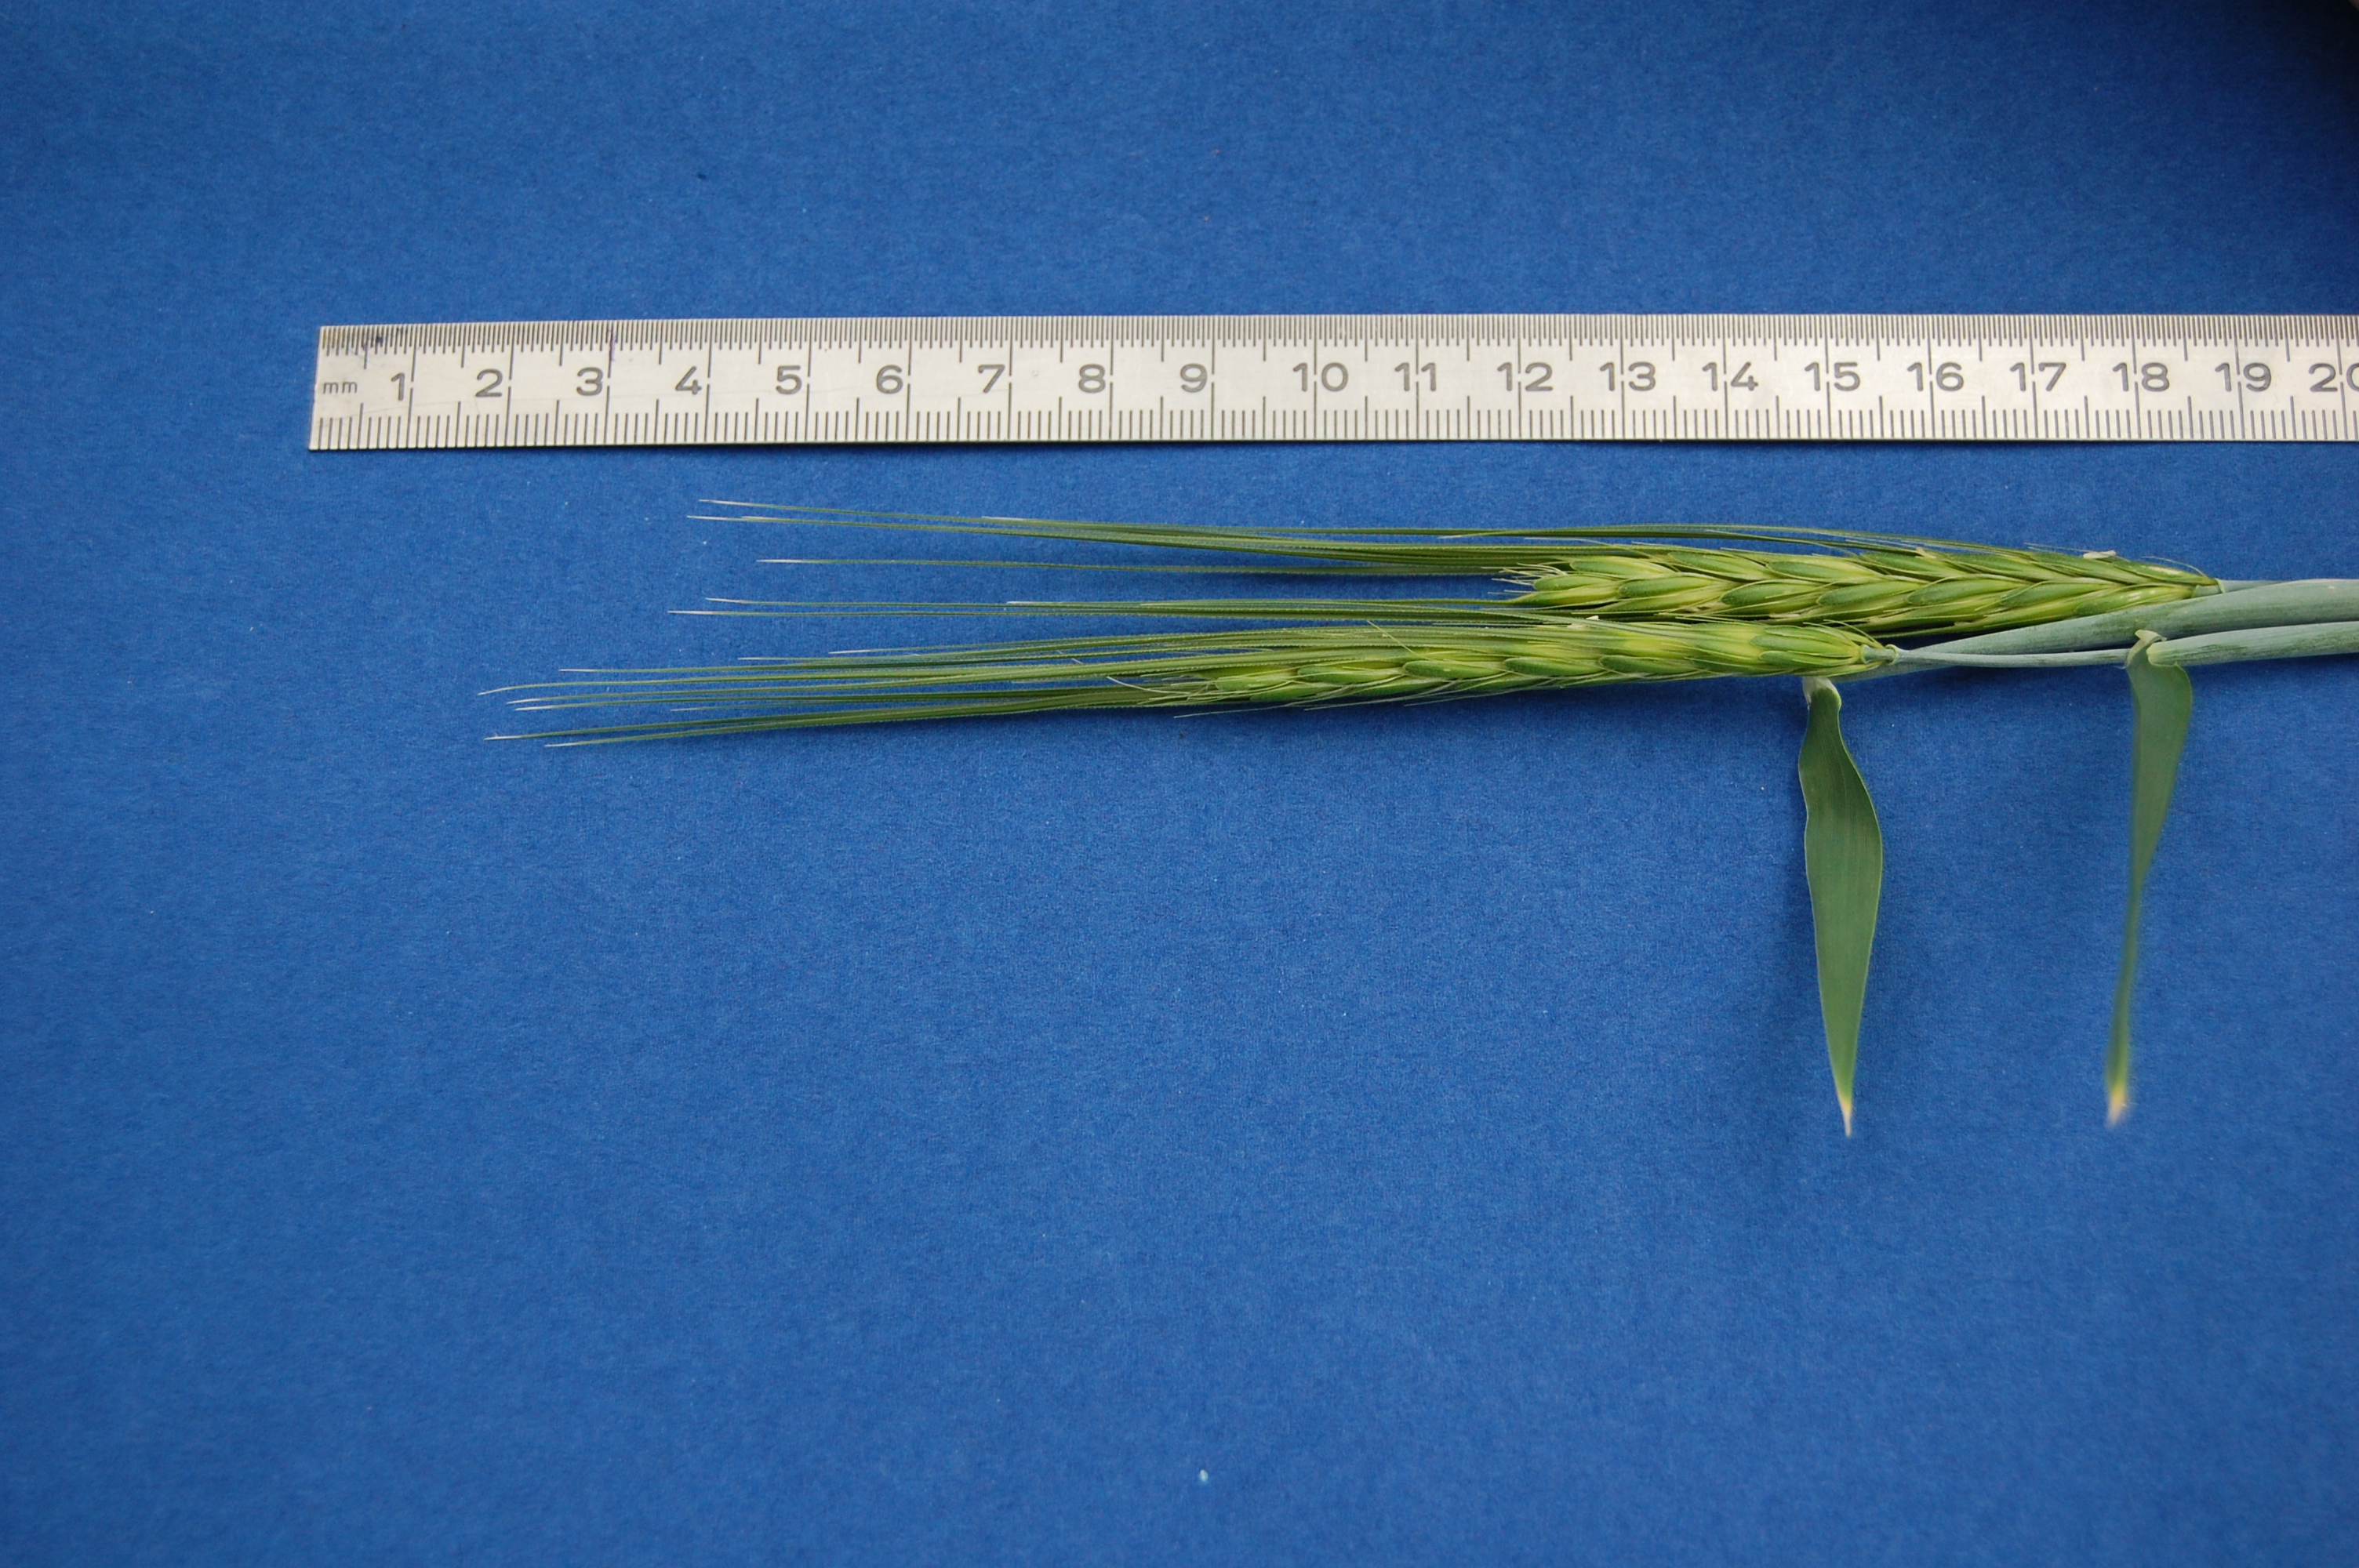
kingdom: Plantae
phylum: Tracheophyta
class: Liliopsida
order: Poales
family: Poaceae
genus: Hordeum
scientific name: Hordeum spontaneum
